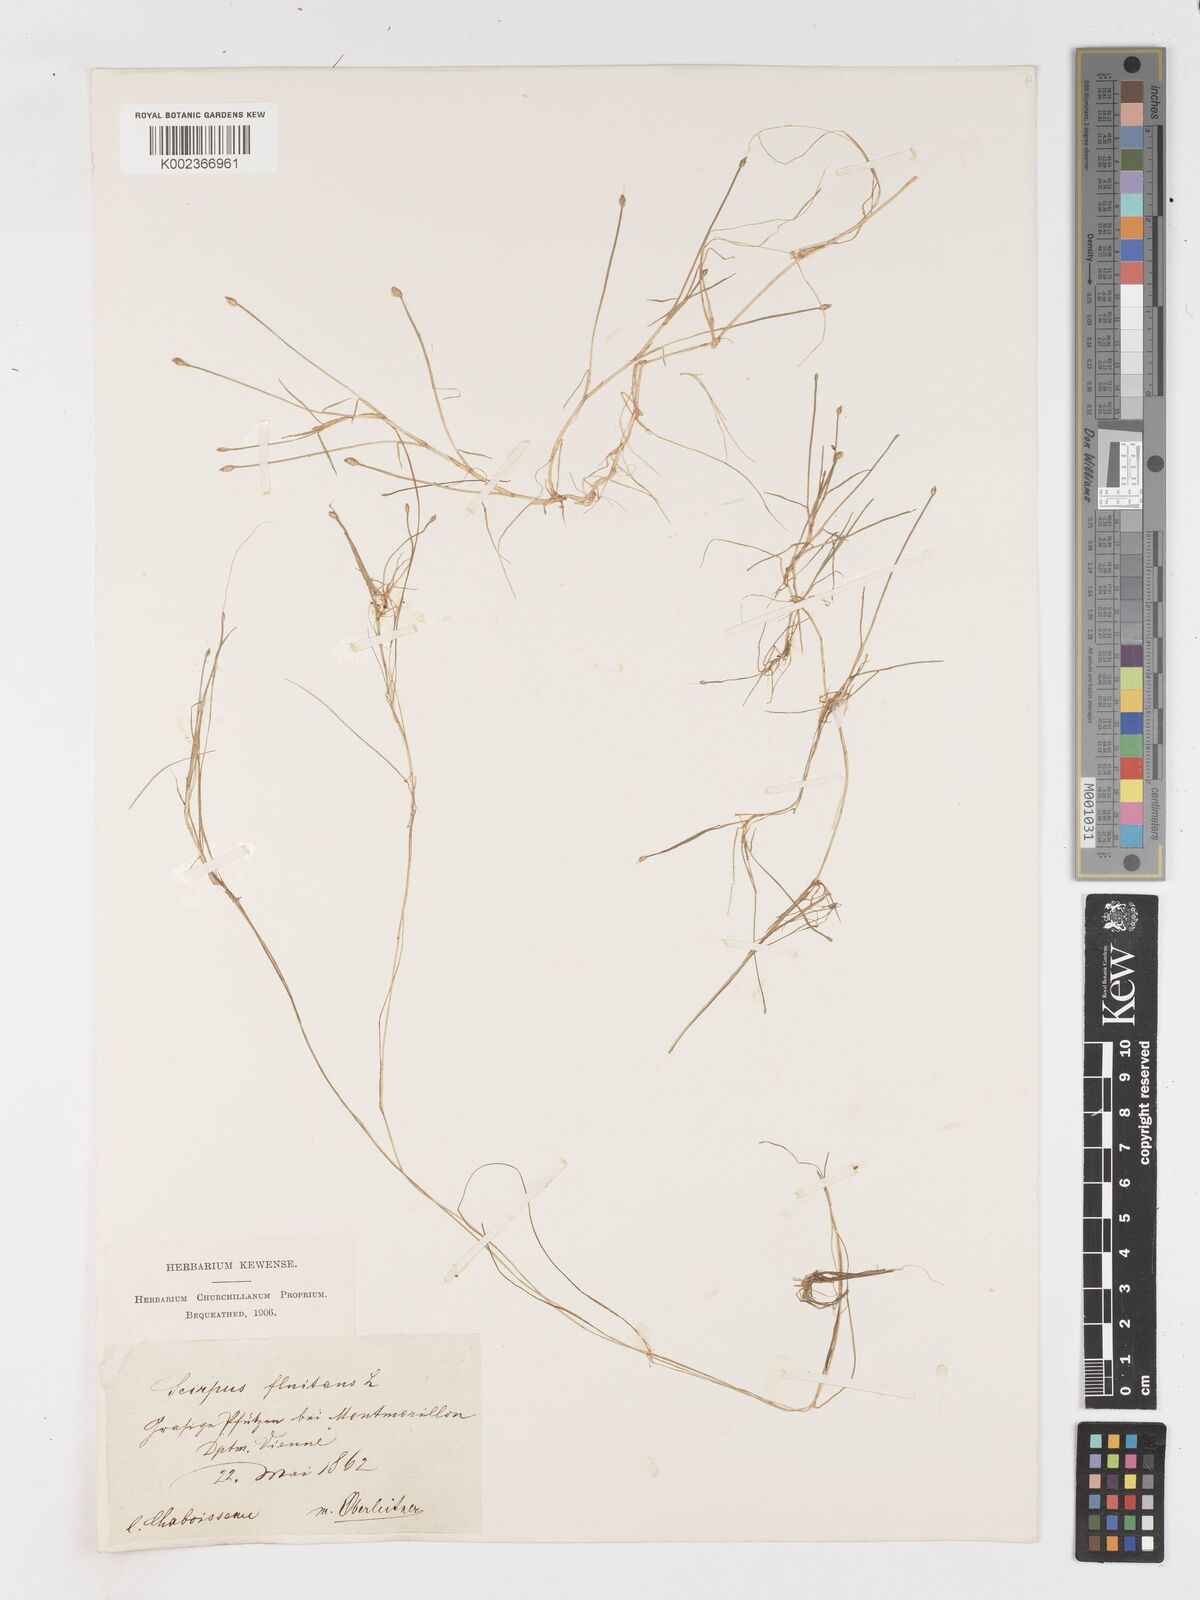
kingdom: Plantae
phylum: Tracheophyta
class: Liliopsida
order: Poales
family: Cyperaceae
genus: Isolepis
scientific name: Isolepis fluitans
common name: Floating club-rush
